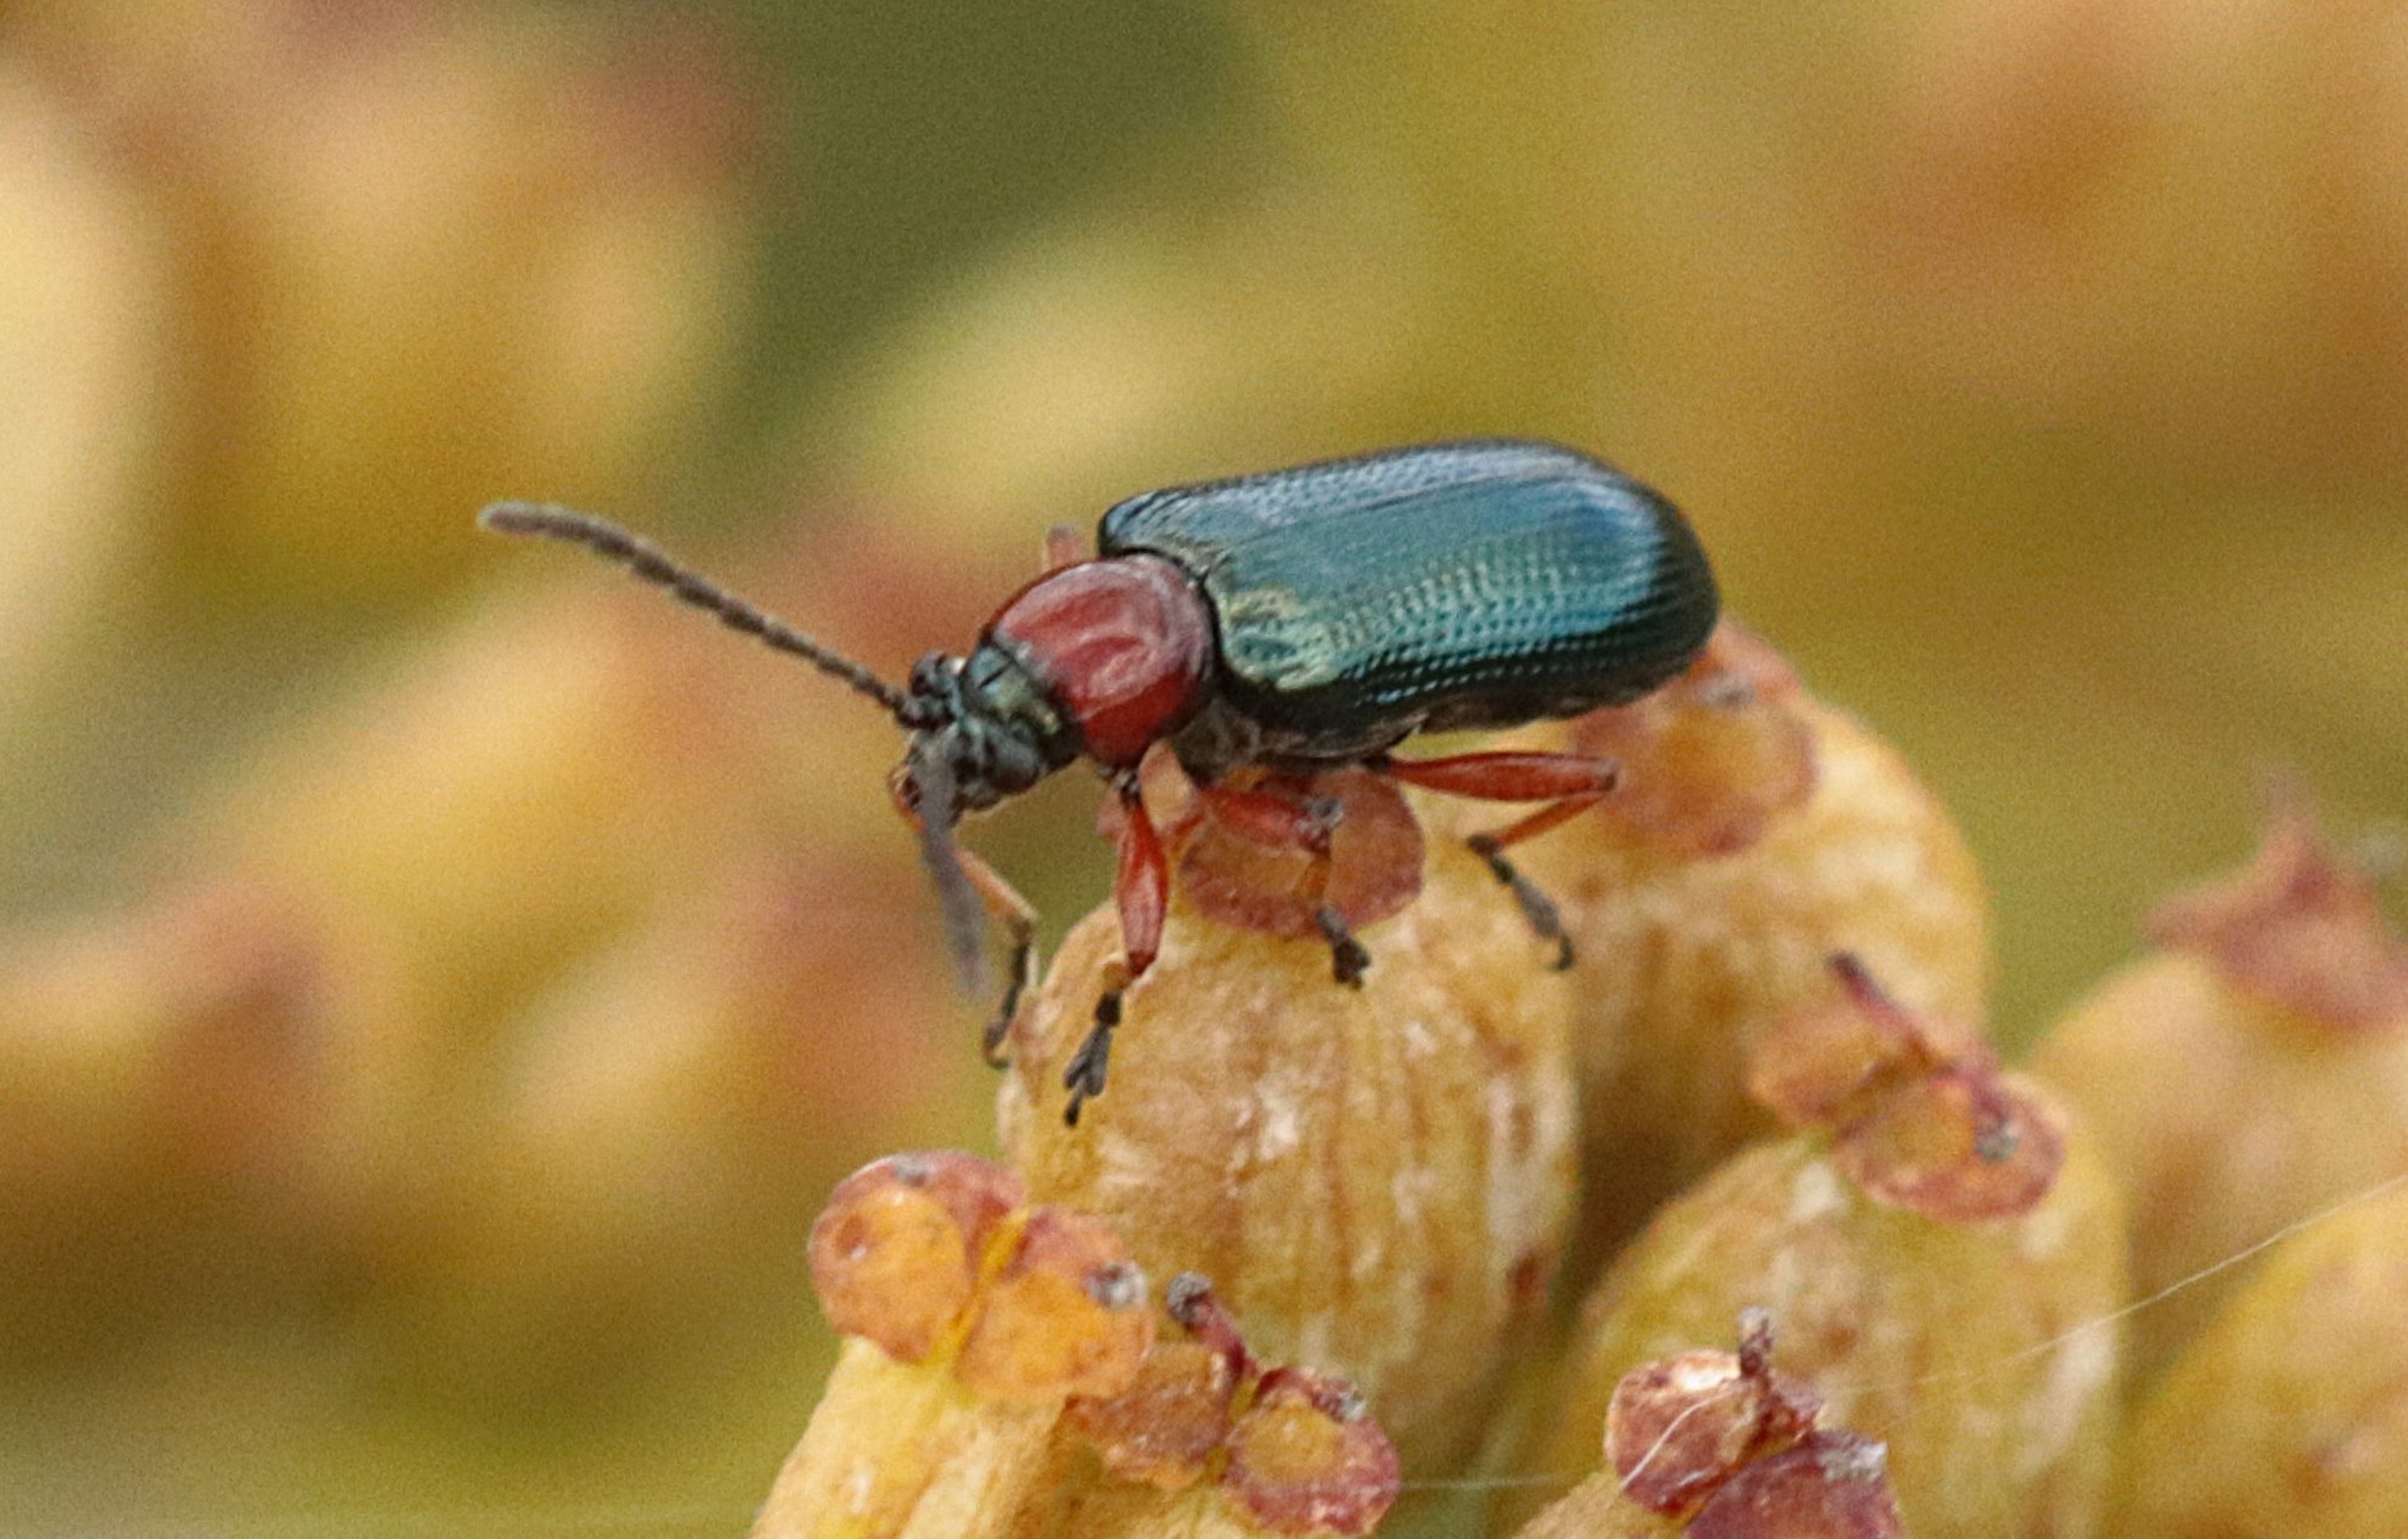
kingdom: Animalia
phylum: Arthropoda
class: Insecta
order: Coleoptera
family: Chrysomelidae
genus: Oulema
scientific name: Oulema
